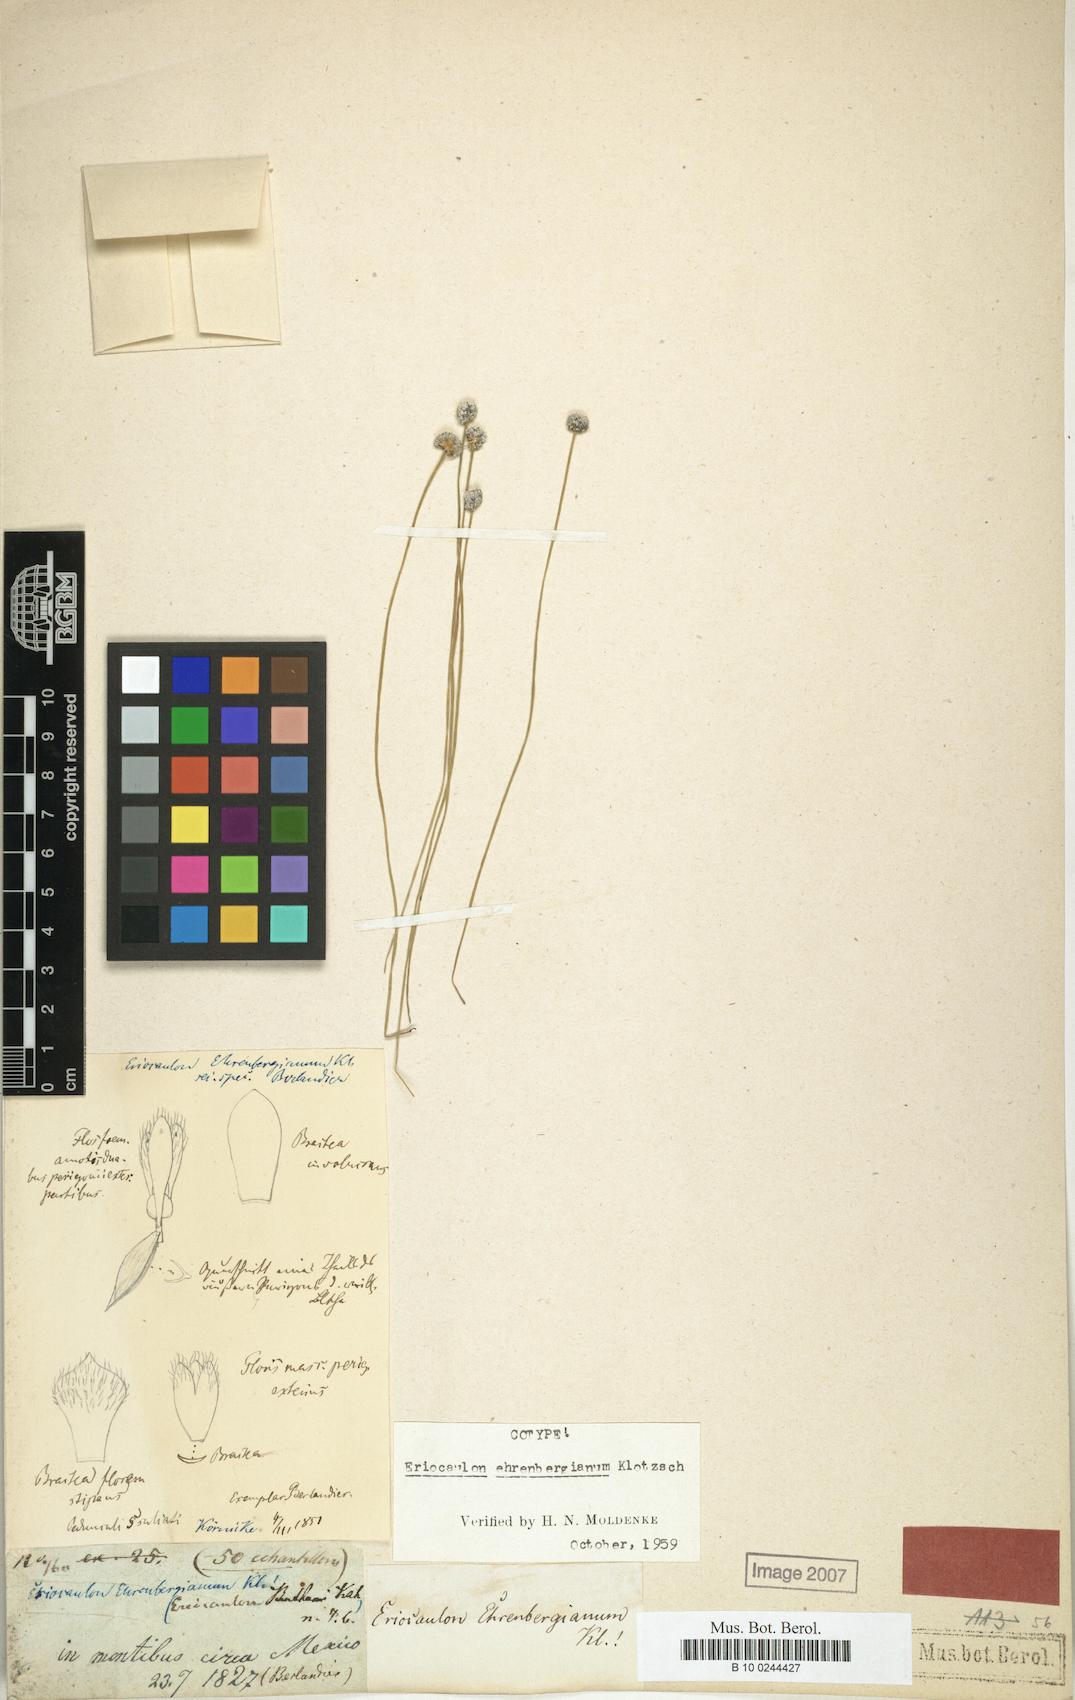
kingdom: Plantae
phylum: Tracheophyta
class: Liliopsida
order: Poales
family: Eriocaulaceae
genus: Eriocaulon
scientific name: Eriocaulon ehrenbergianum
